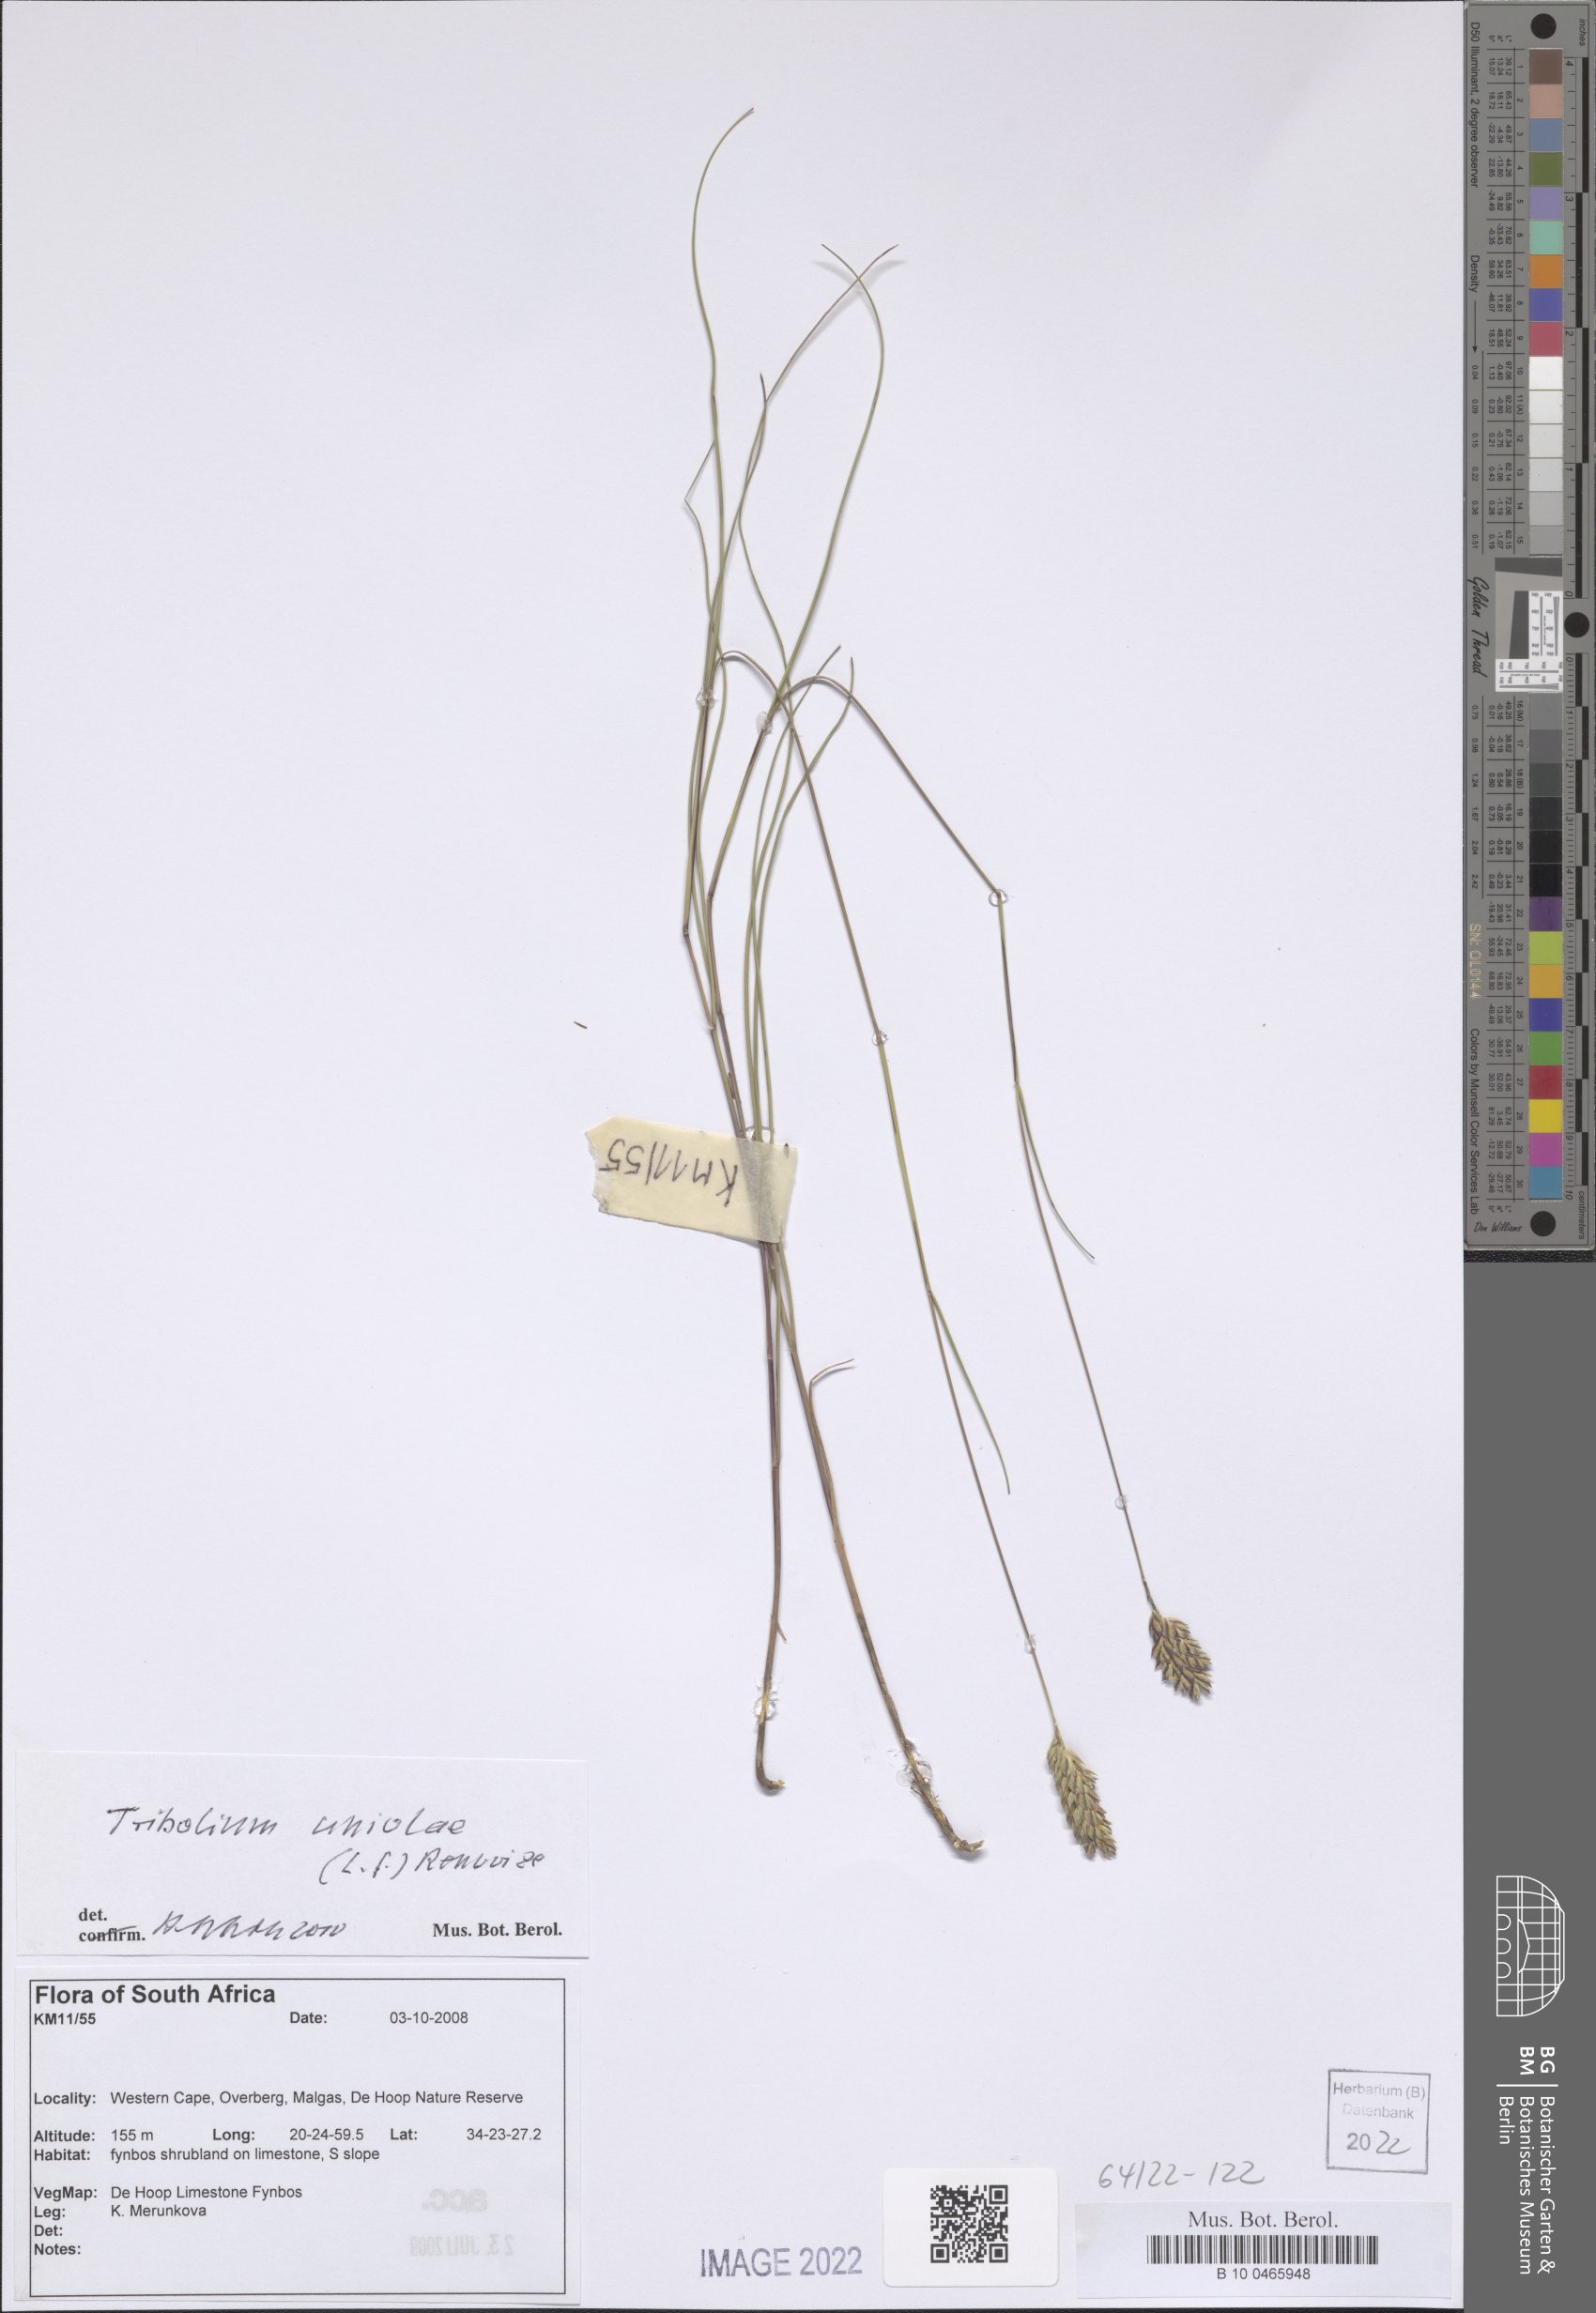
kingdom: Plantae
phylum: Tracheophyta
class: Liliopsida
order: Poales
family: Poaceae
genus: Tribolium
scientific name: Tribolium uniolae
